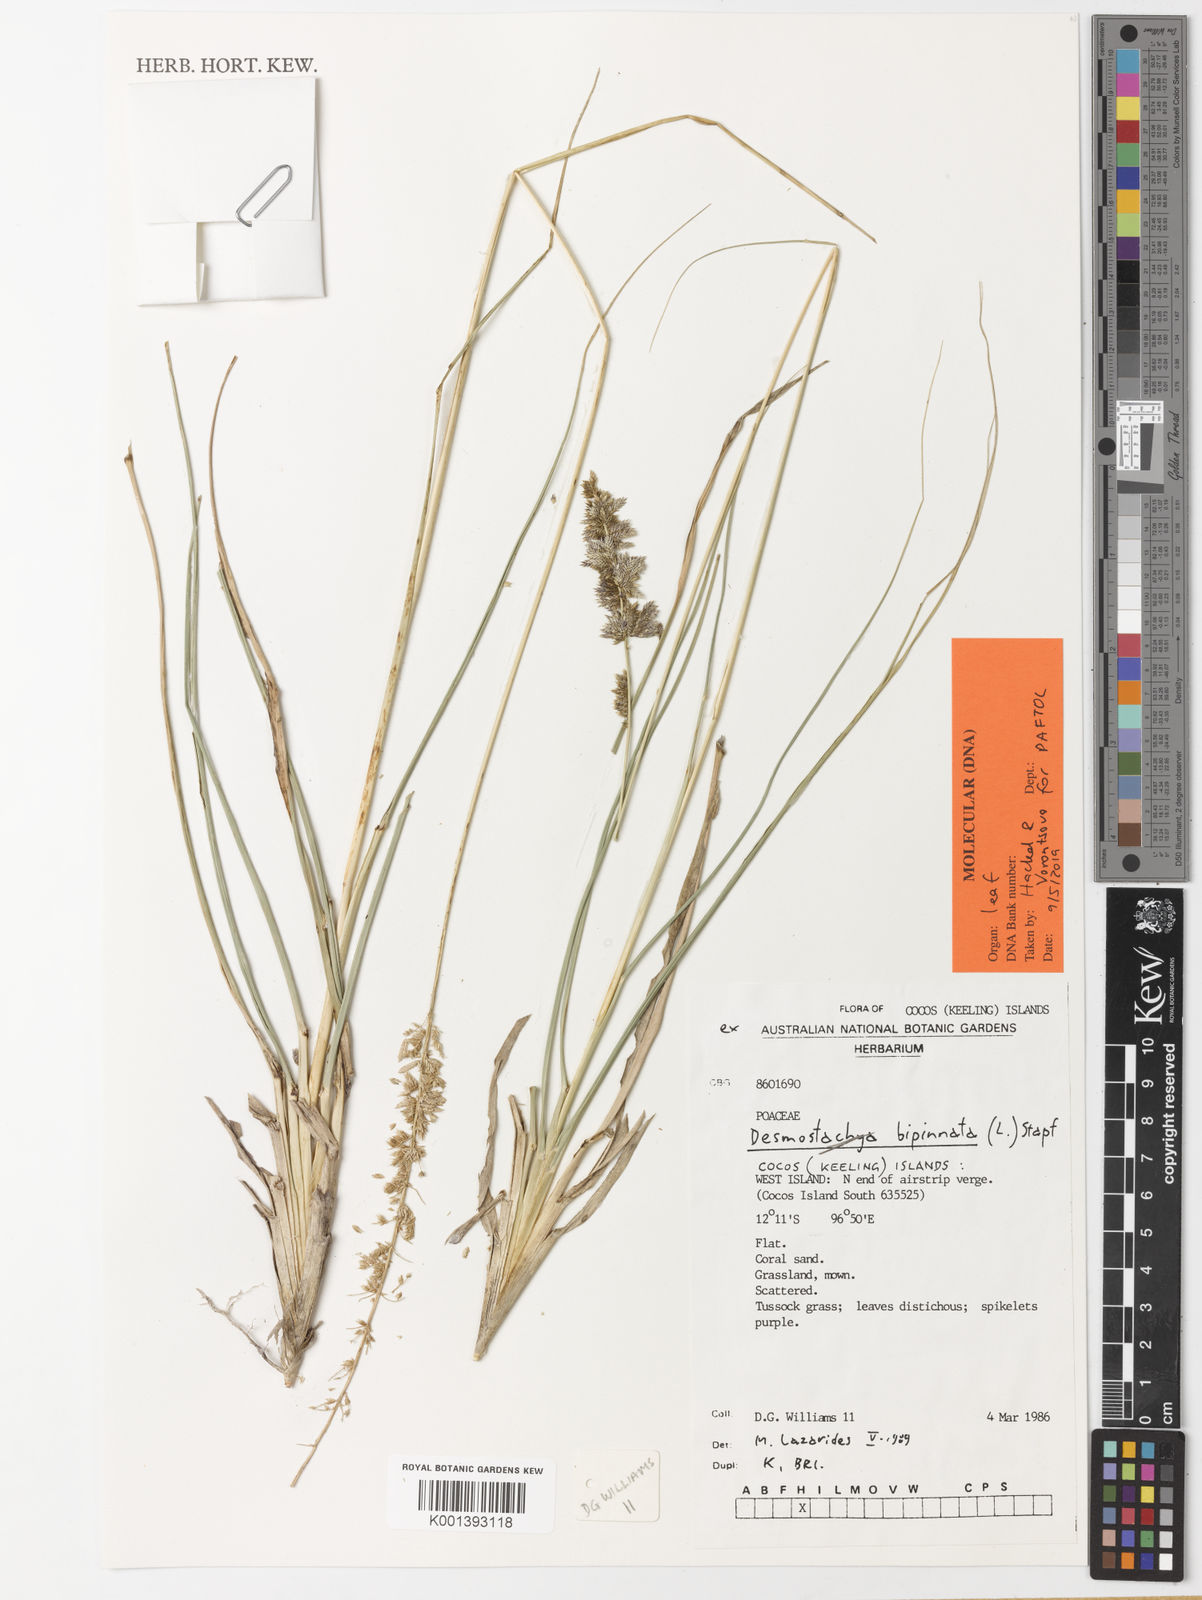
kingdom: Plantae
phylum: Tracheophyta
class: Liliopsida
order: Poales
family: Poaceae
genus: Desmostachya
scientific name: Desmostachya bipinnata
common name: Crowfoot grass
